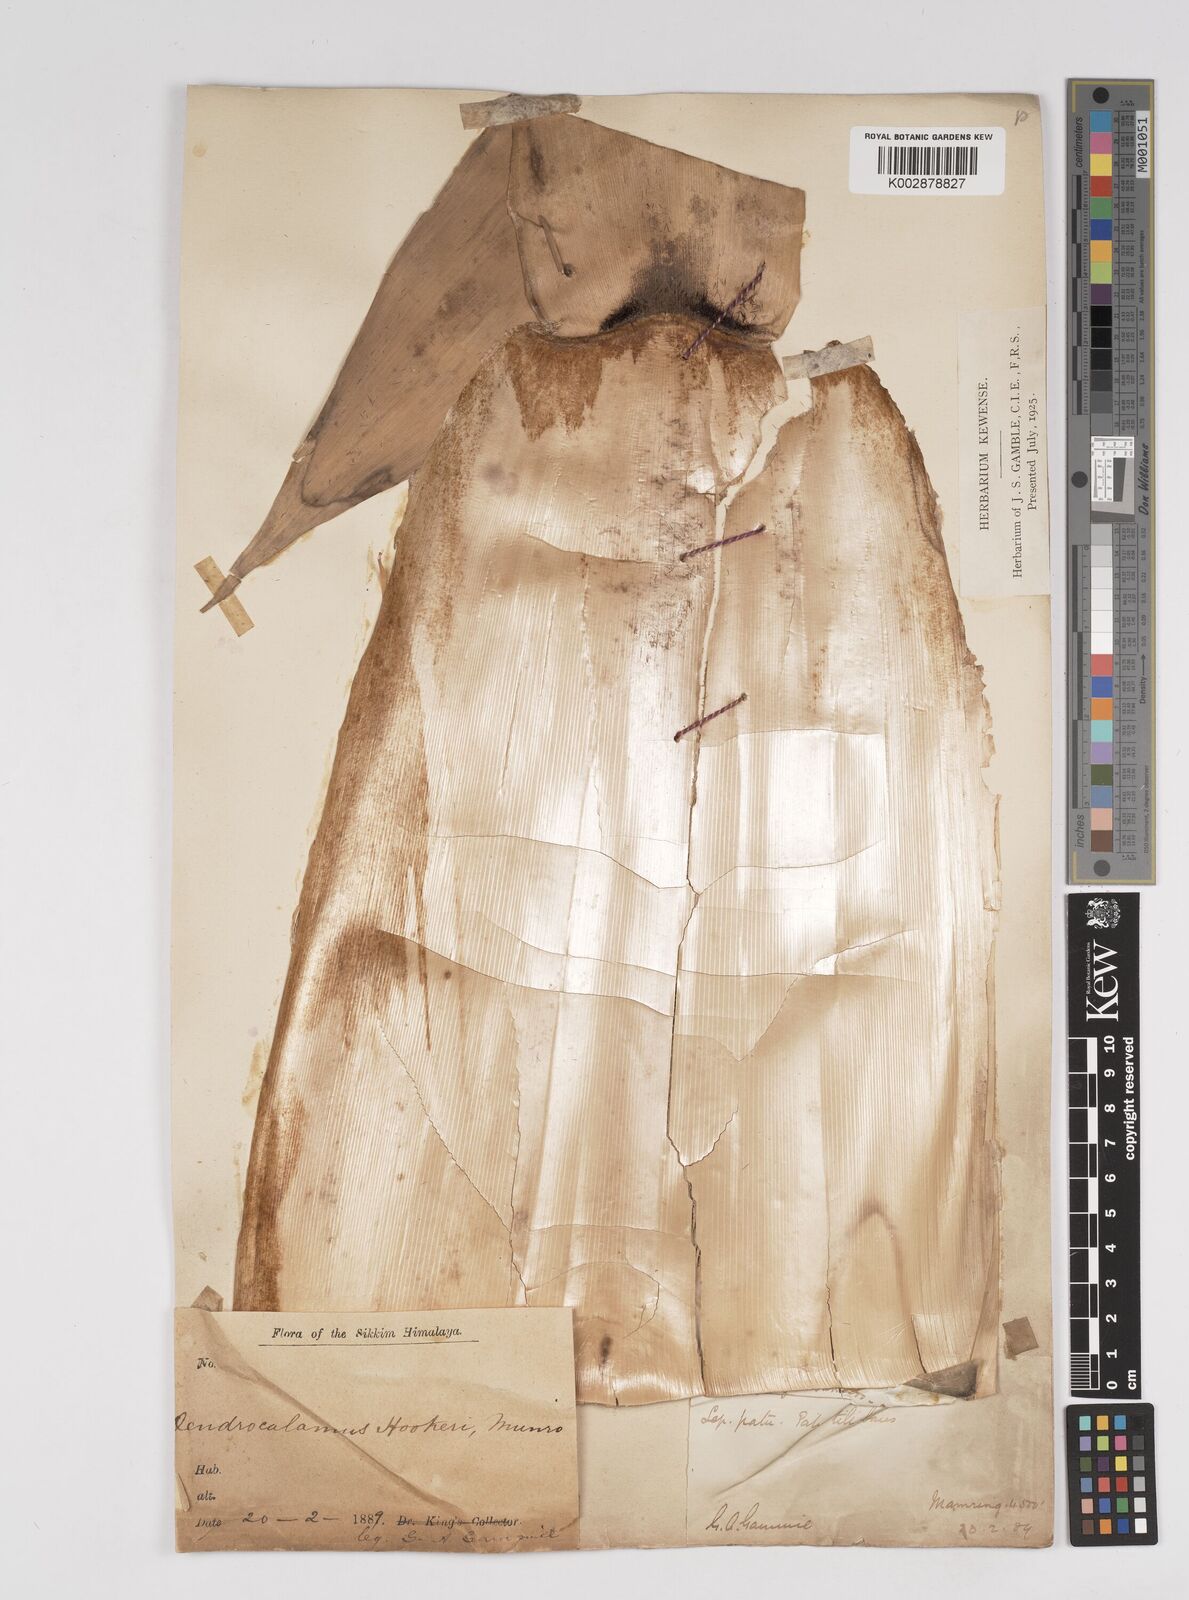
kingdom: Plantae
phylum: Tracheophyta
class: Liliopsida
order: Poales
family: Poaceae
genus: Dendrocalamus
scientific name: Dendrocalamus hookeri
